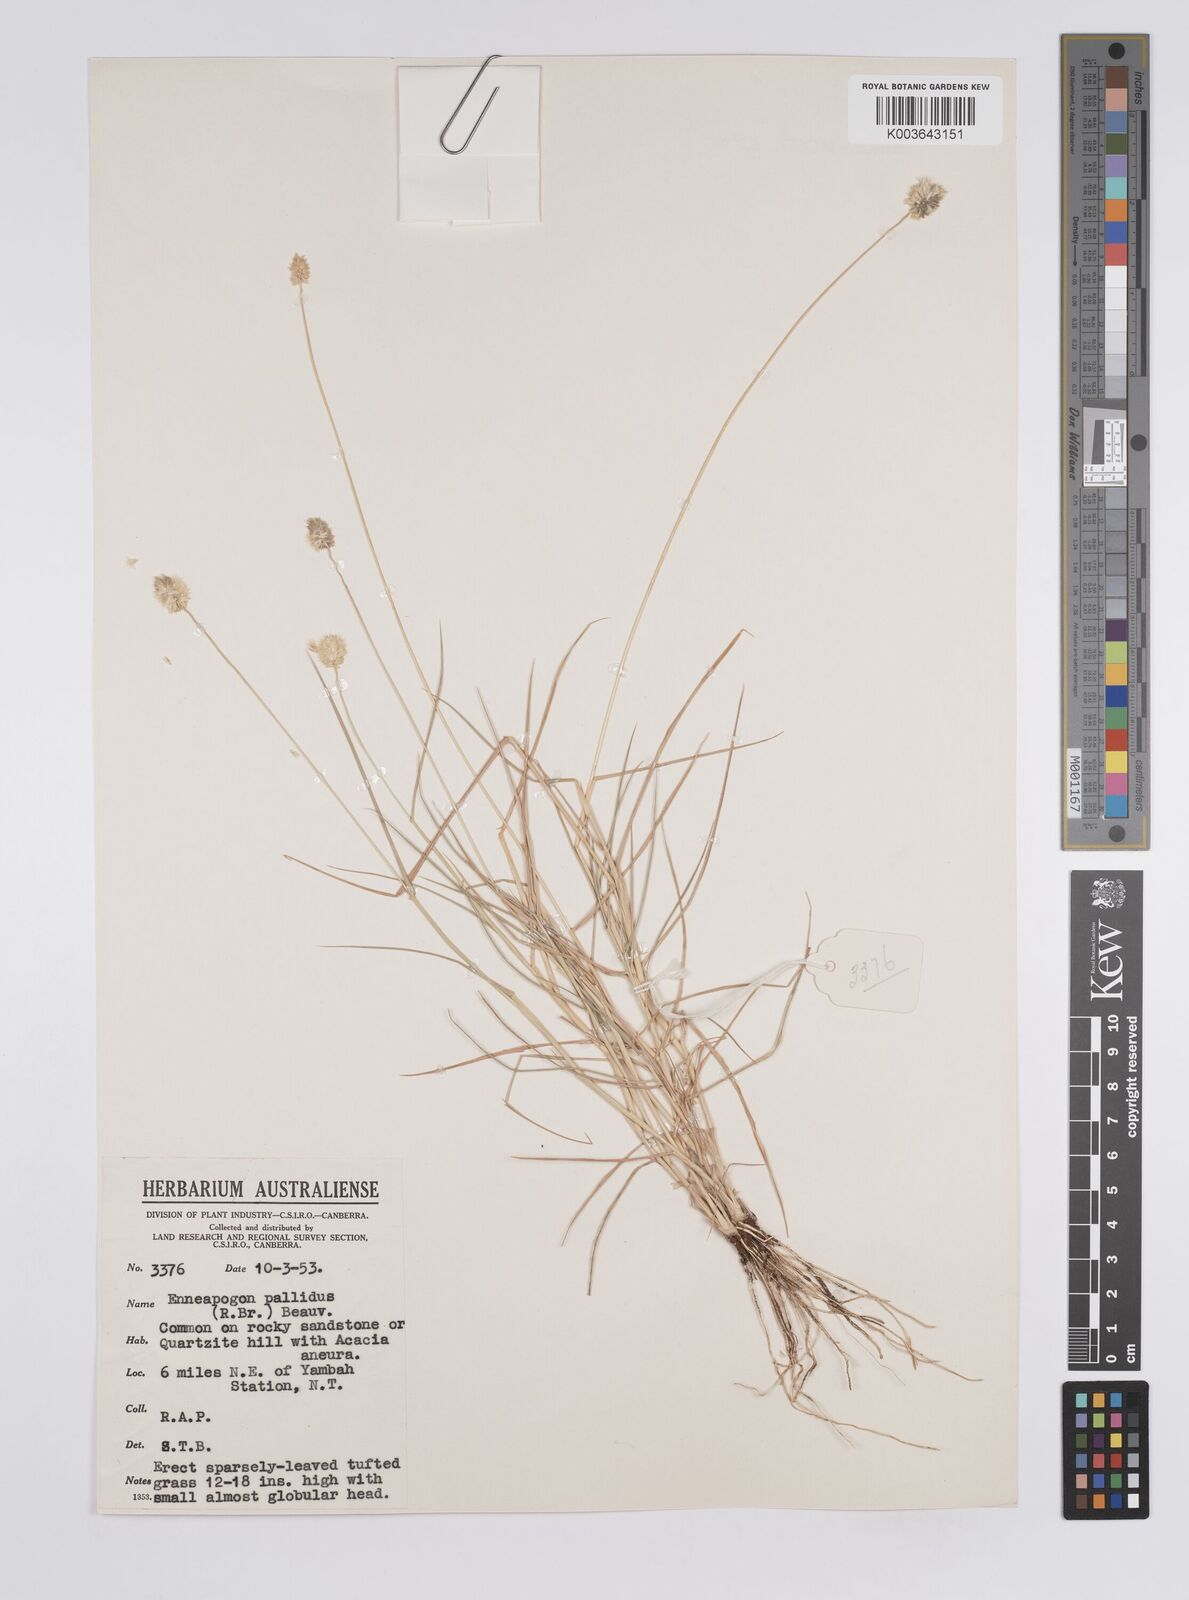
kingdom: Plantae
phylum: Tracheophyta
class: Liliopsida
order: Poales
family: Poaceae
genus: Enneapogon
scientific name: Enneapogon lindleyanus
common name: Conetop nineawn
